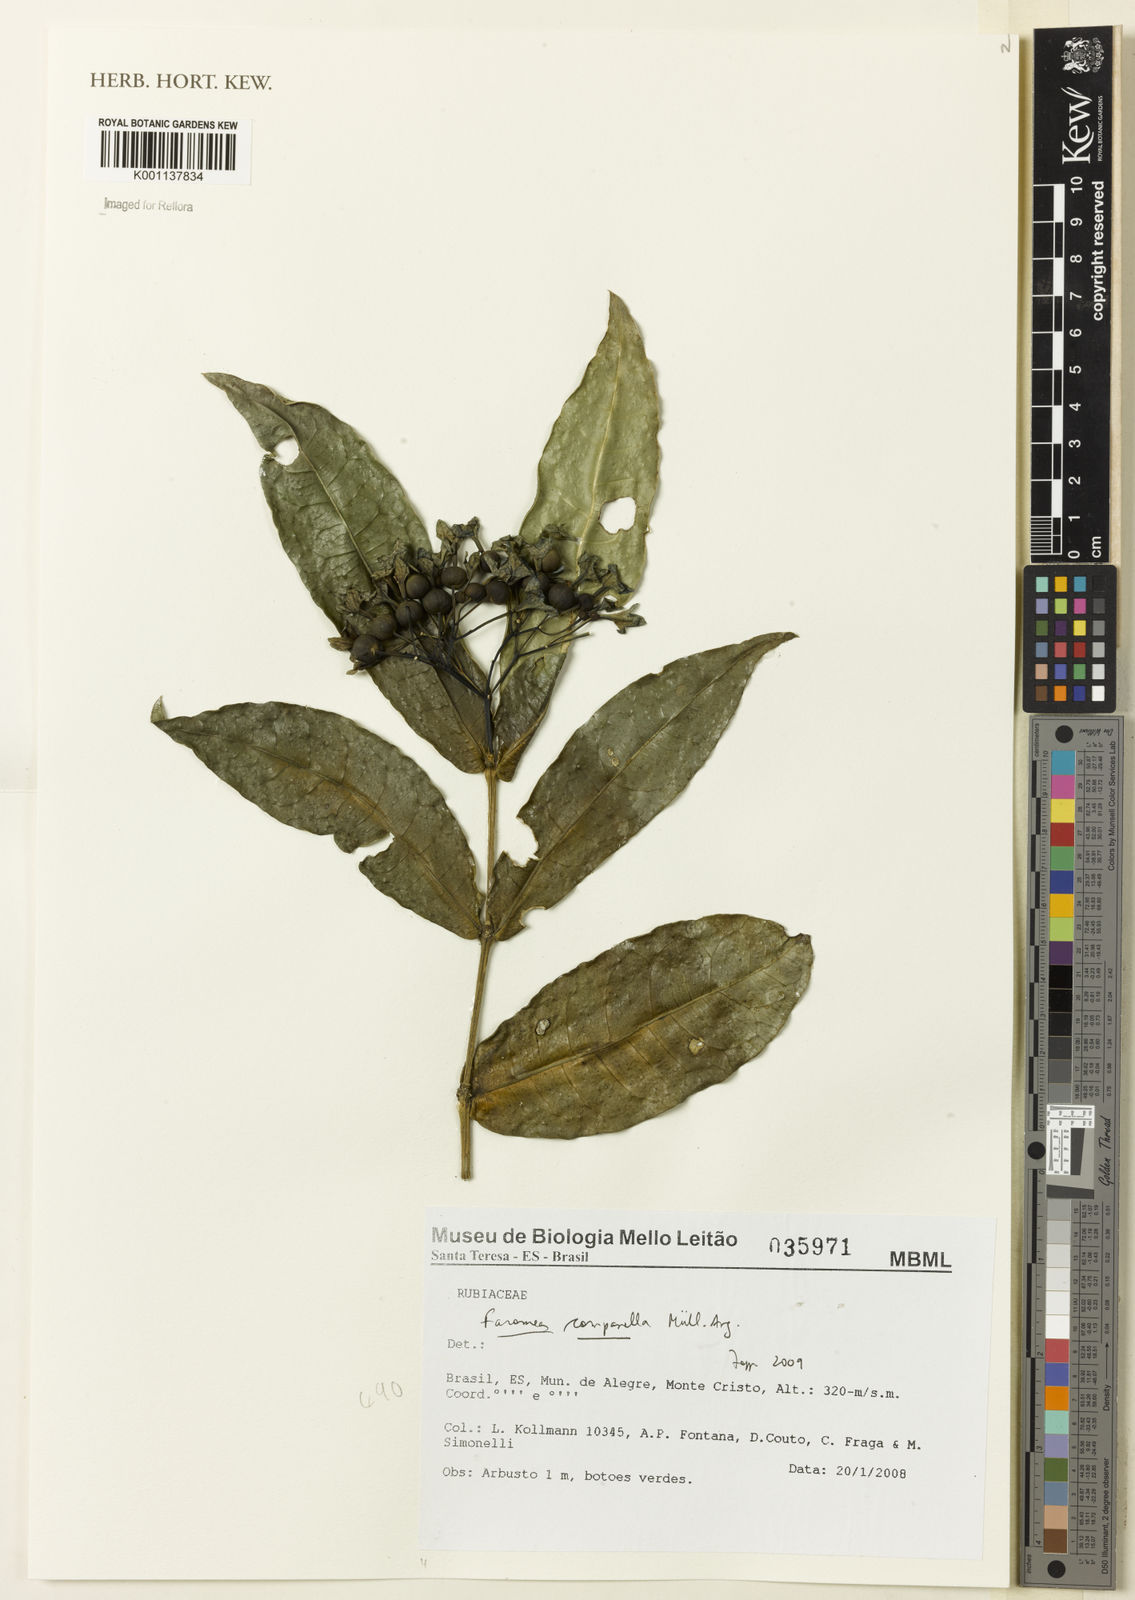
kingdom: Plantae
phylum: Tracheophyta
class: Magnoliopsida
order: Gentianales
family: Rubiaceae
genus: Faramea
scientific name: Faramea
